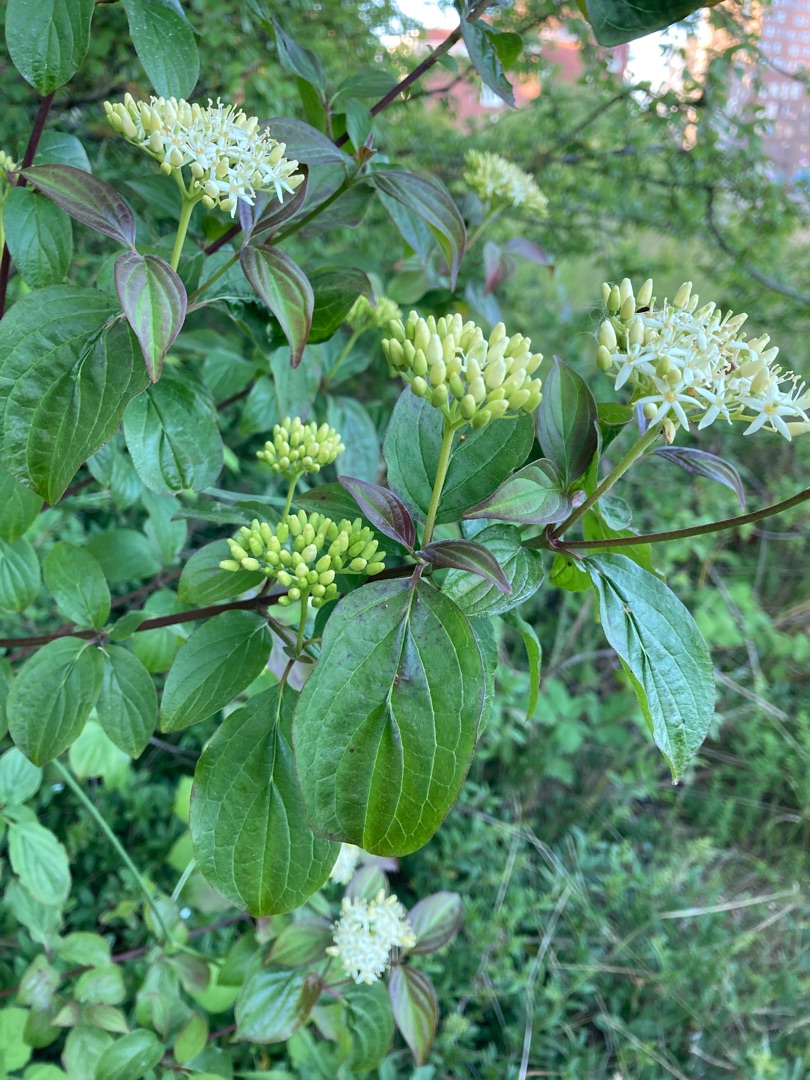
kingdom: Plantae
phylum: Tracheophyta
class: Magnoliopsida
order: Cornales
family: Cornaceae
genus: Cornus
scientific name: Cornus sanguinea
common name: Rød kornel
